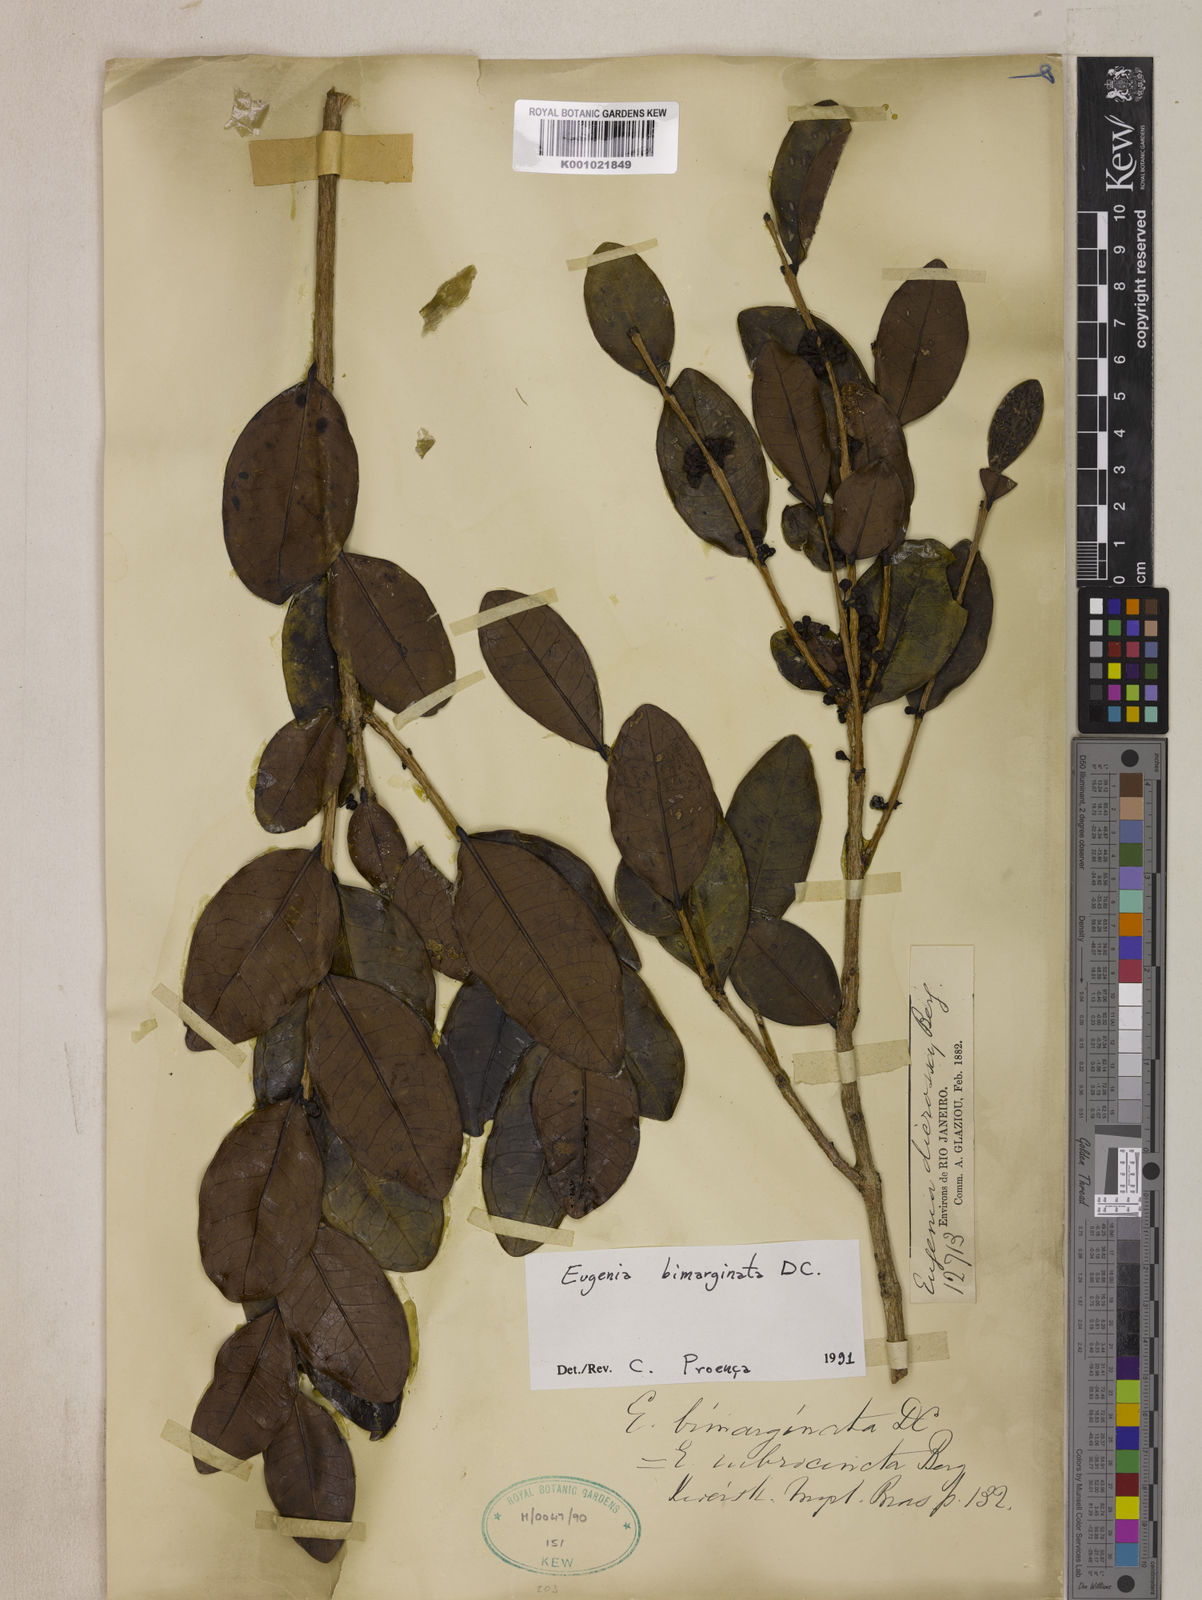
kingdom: Plantae
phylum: Tracheophyta
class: Magnoliopsida
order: Myrtales
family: Myrtaceae
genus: Eugenia
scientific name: Eugenia bimarginata
